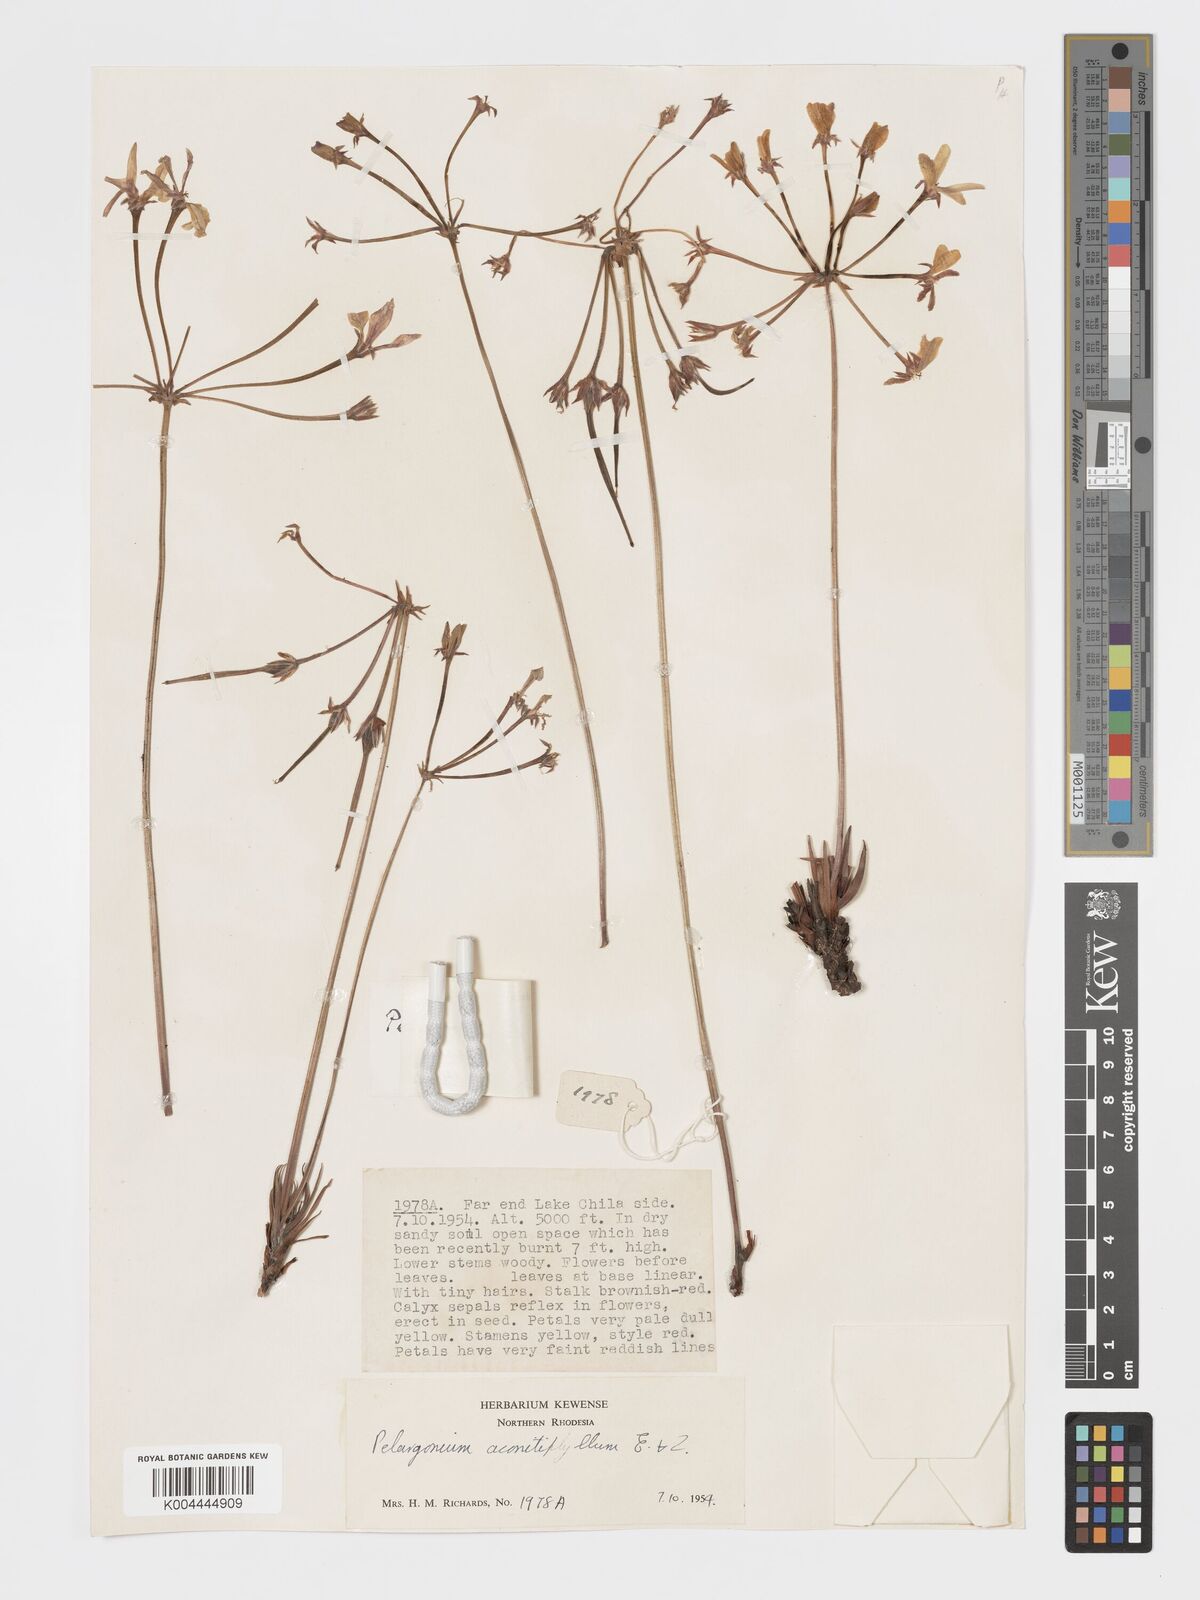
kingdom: Plantae
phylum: Tracheophyta
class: Magnoliopsida
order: Geraniales
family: Geraniaceae
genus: Pelargonium
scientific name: Pelargonium luridum
